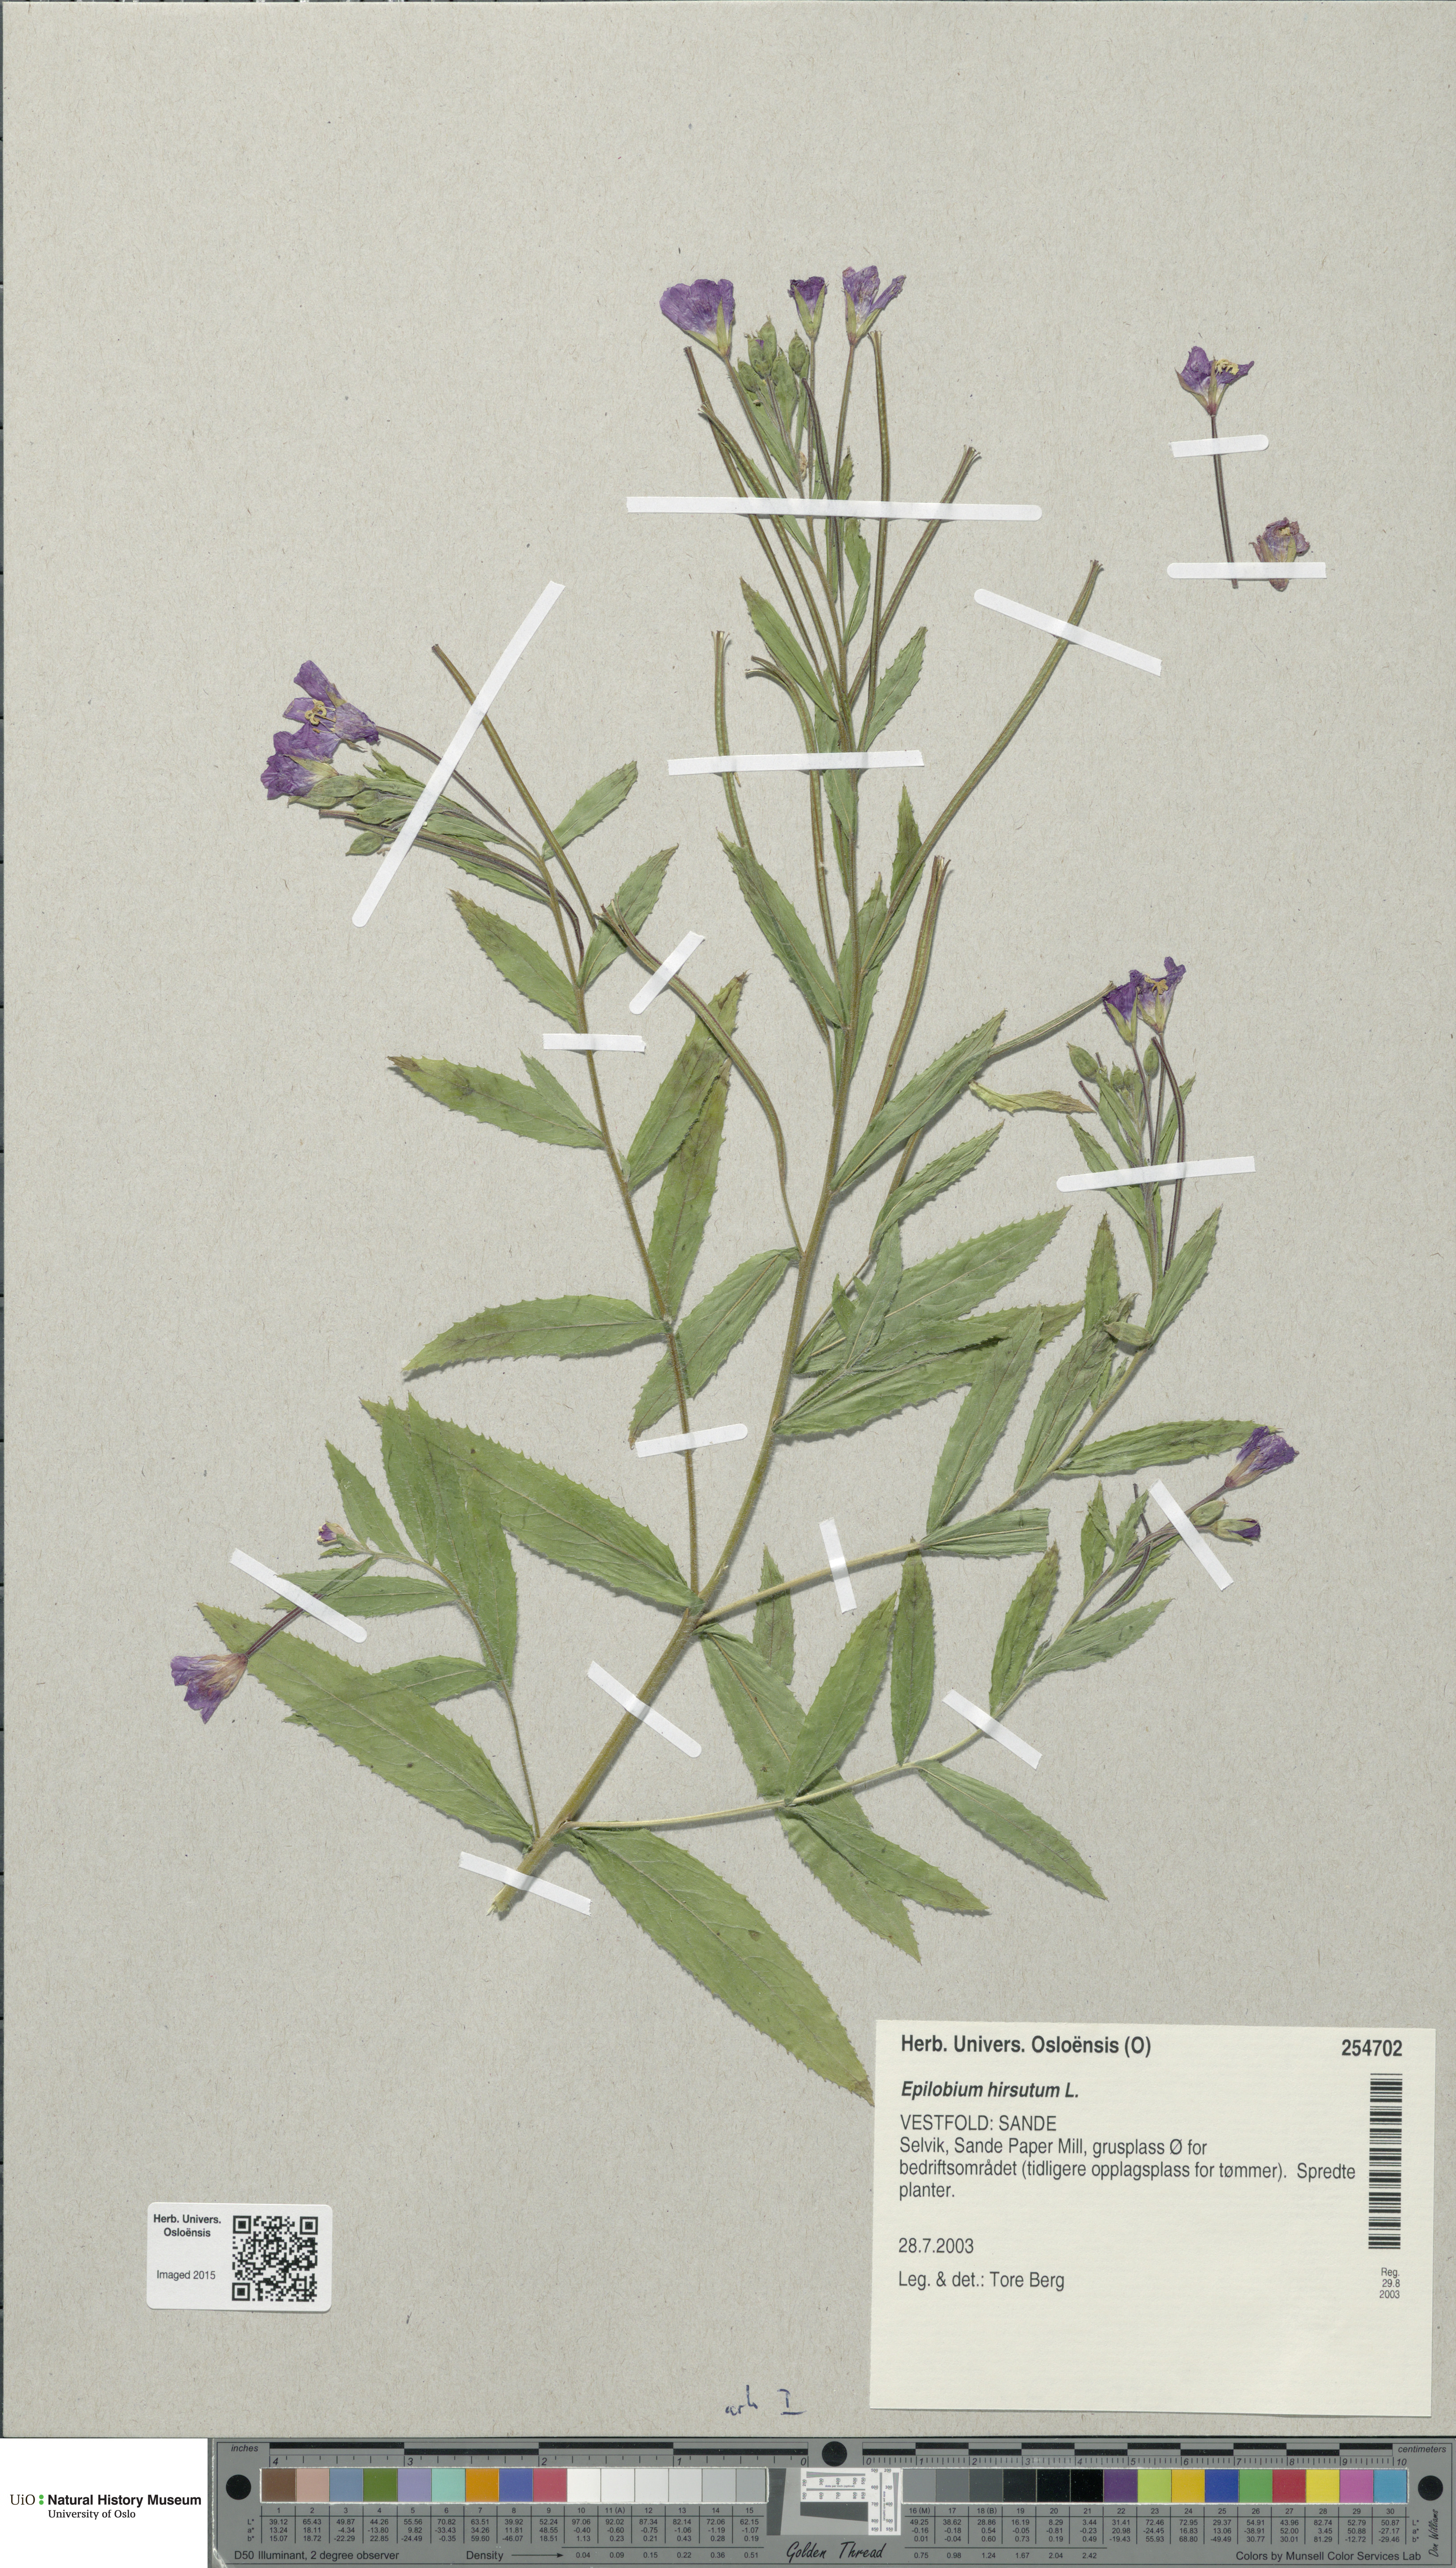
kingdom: Plantae
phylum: Tracheophyta
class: Magnoliopsida
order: Myrtales
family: Onagraceae
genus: Epilobium
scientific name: Epilobium hirsutum
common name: Great willowherb
